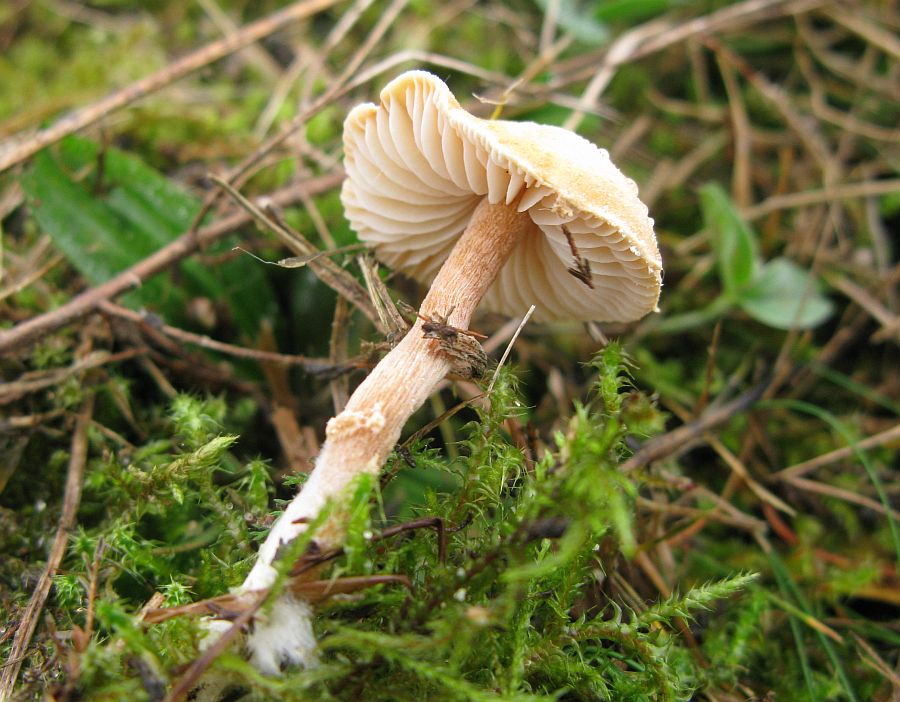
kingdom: Fungi
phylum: Basidiomycota
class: Agaricomycetes
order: Agaricales
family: Tricholomataceae
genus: Cystoderma
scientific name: Cystoderma amianthinum
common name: okkergul grynhat
